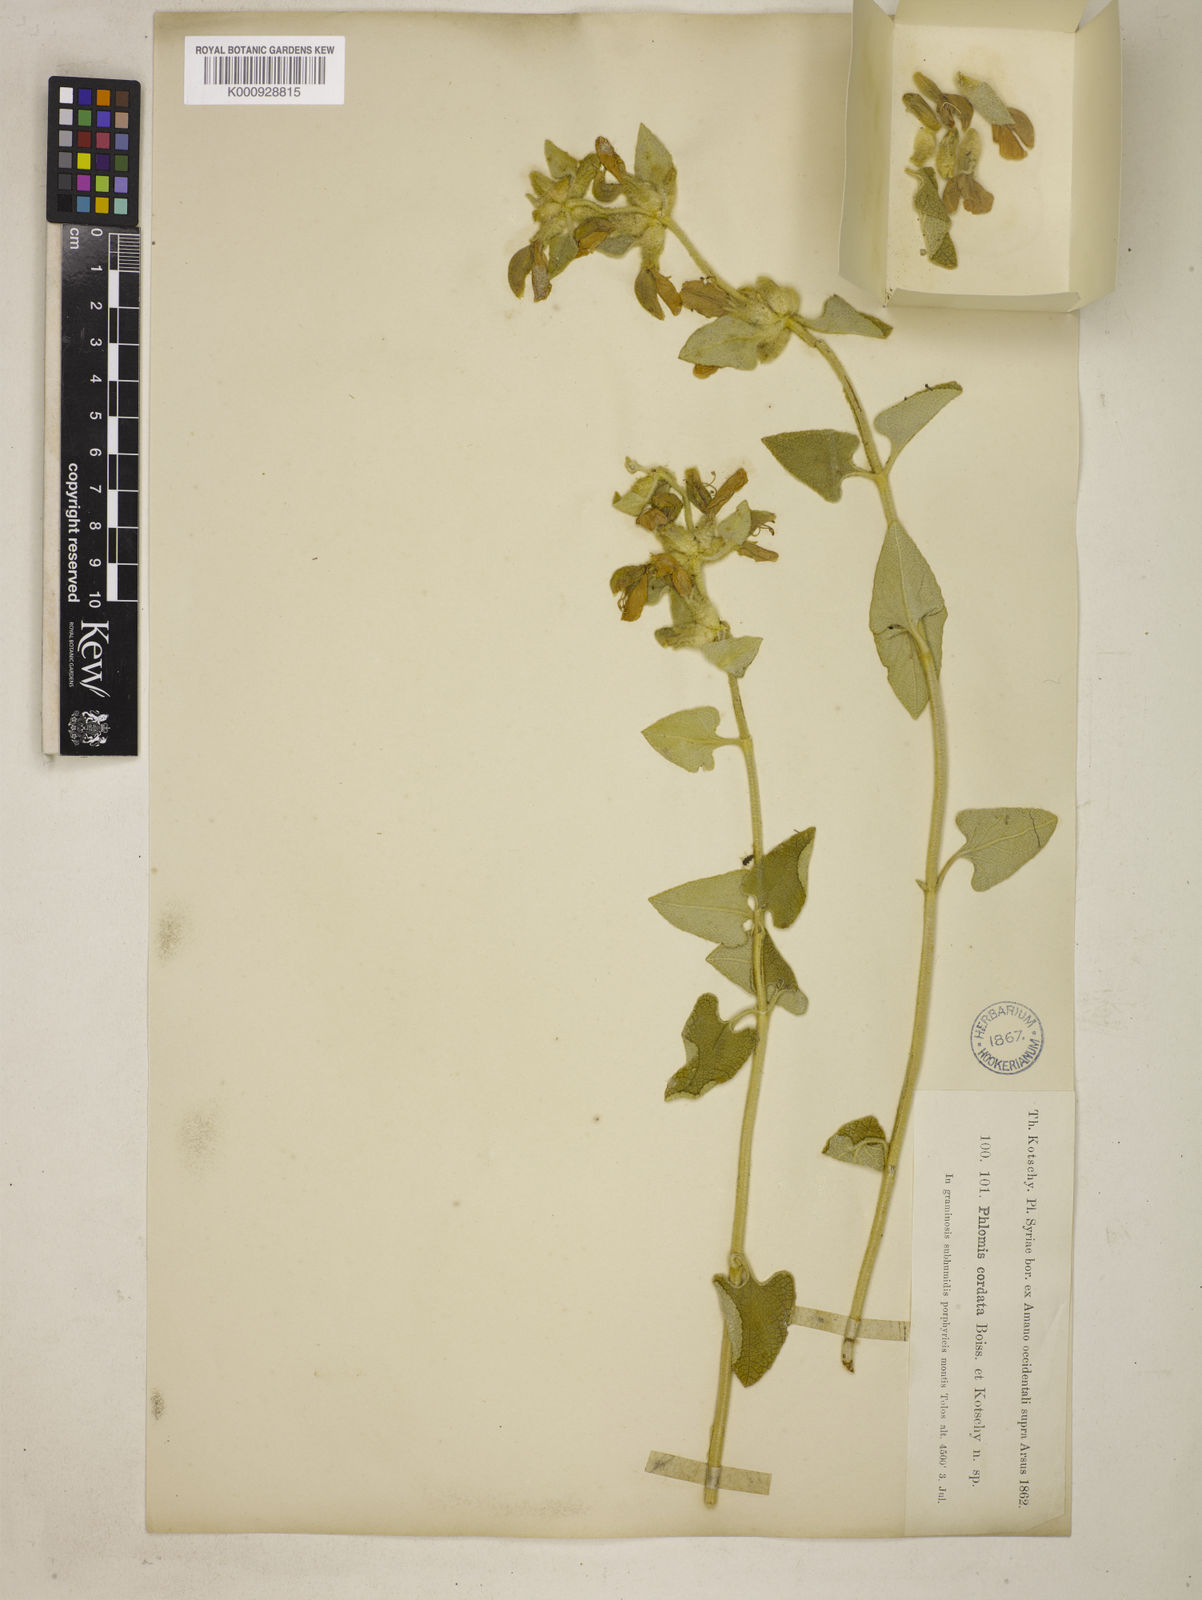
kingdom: Plantae
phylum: Tracheophyta
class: Magnoliopsida
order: Lamiales
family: Lamiaceae
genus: Phlomis
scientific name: Phlomis kotschyana
